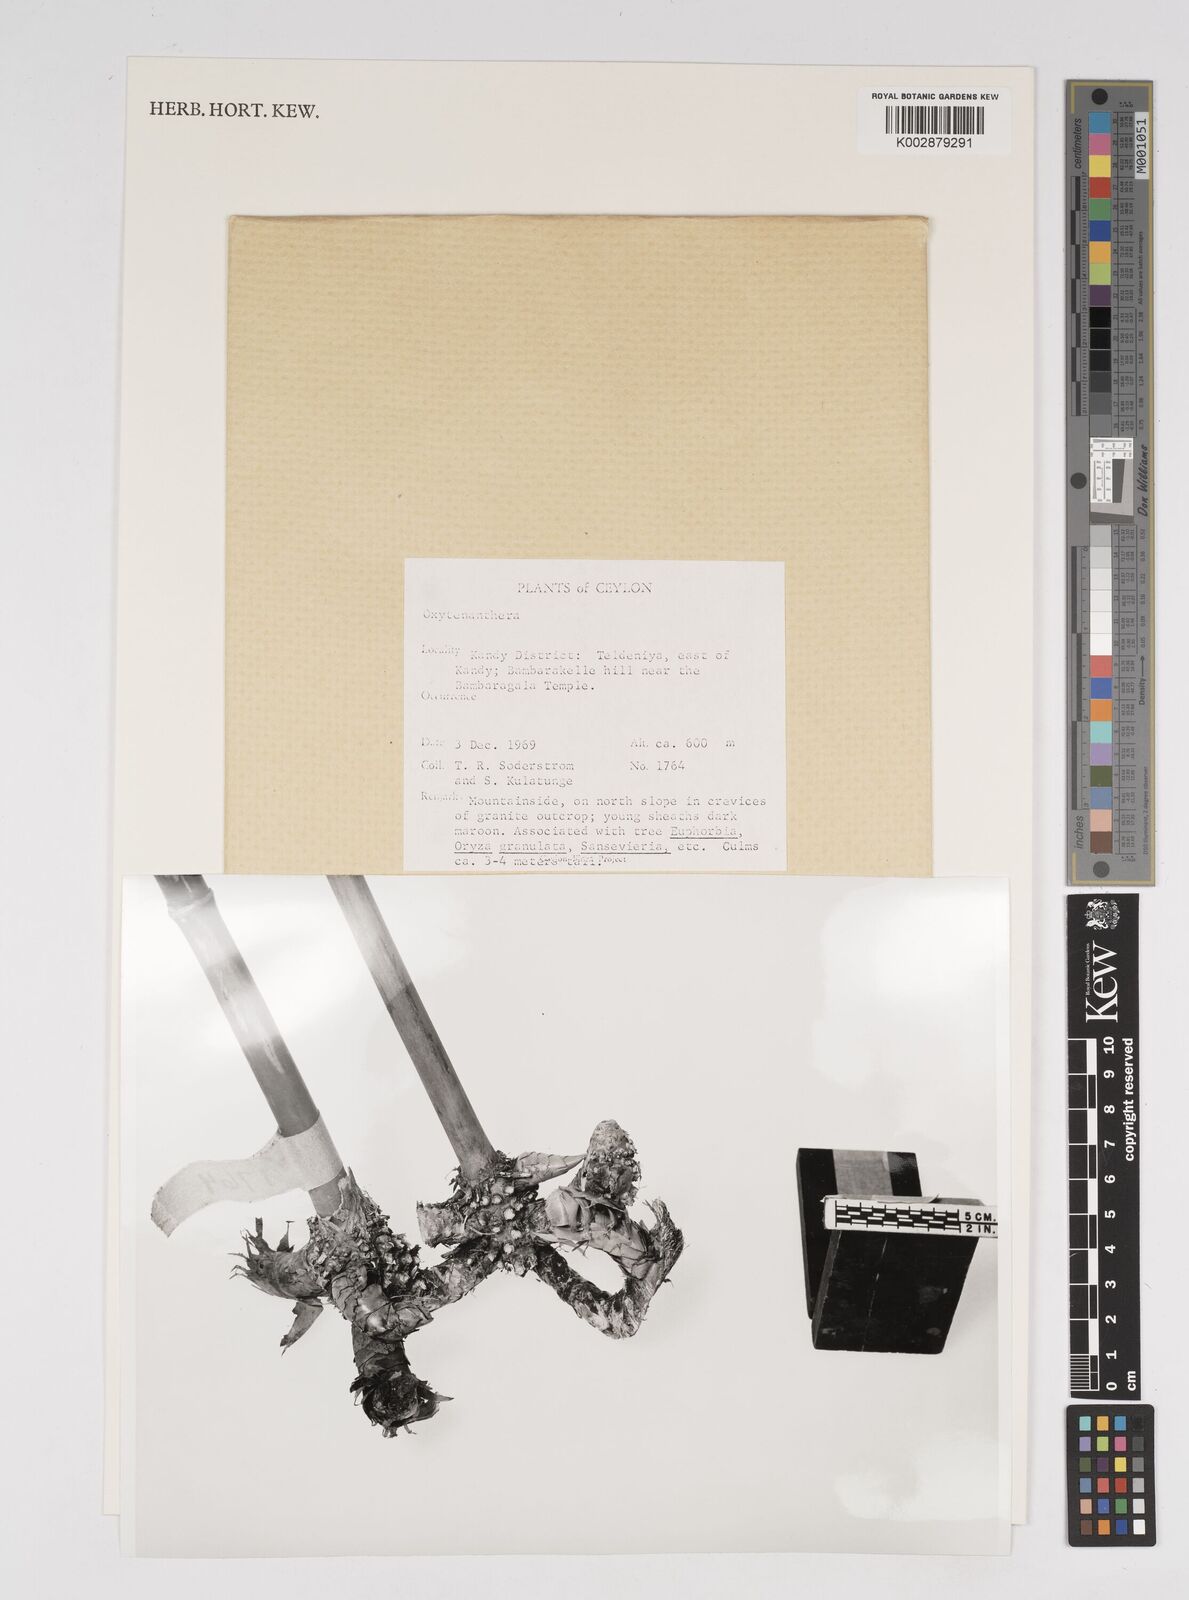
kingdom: Plantae
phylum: Tracheophyta
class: Liliopsida
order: Poales
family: Poaceae
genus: Dendrocalamus
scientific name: Dendrocalamus
